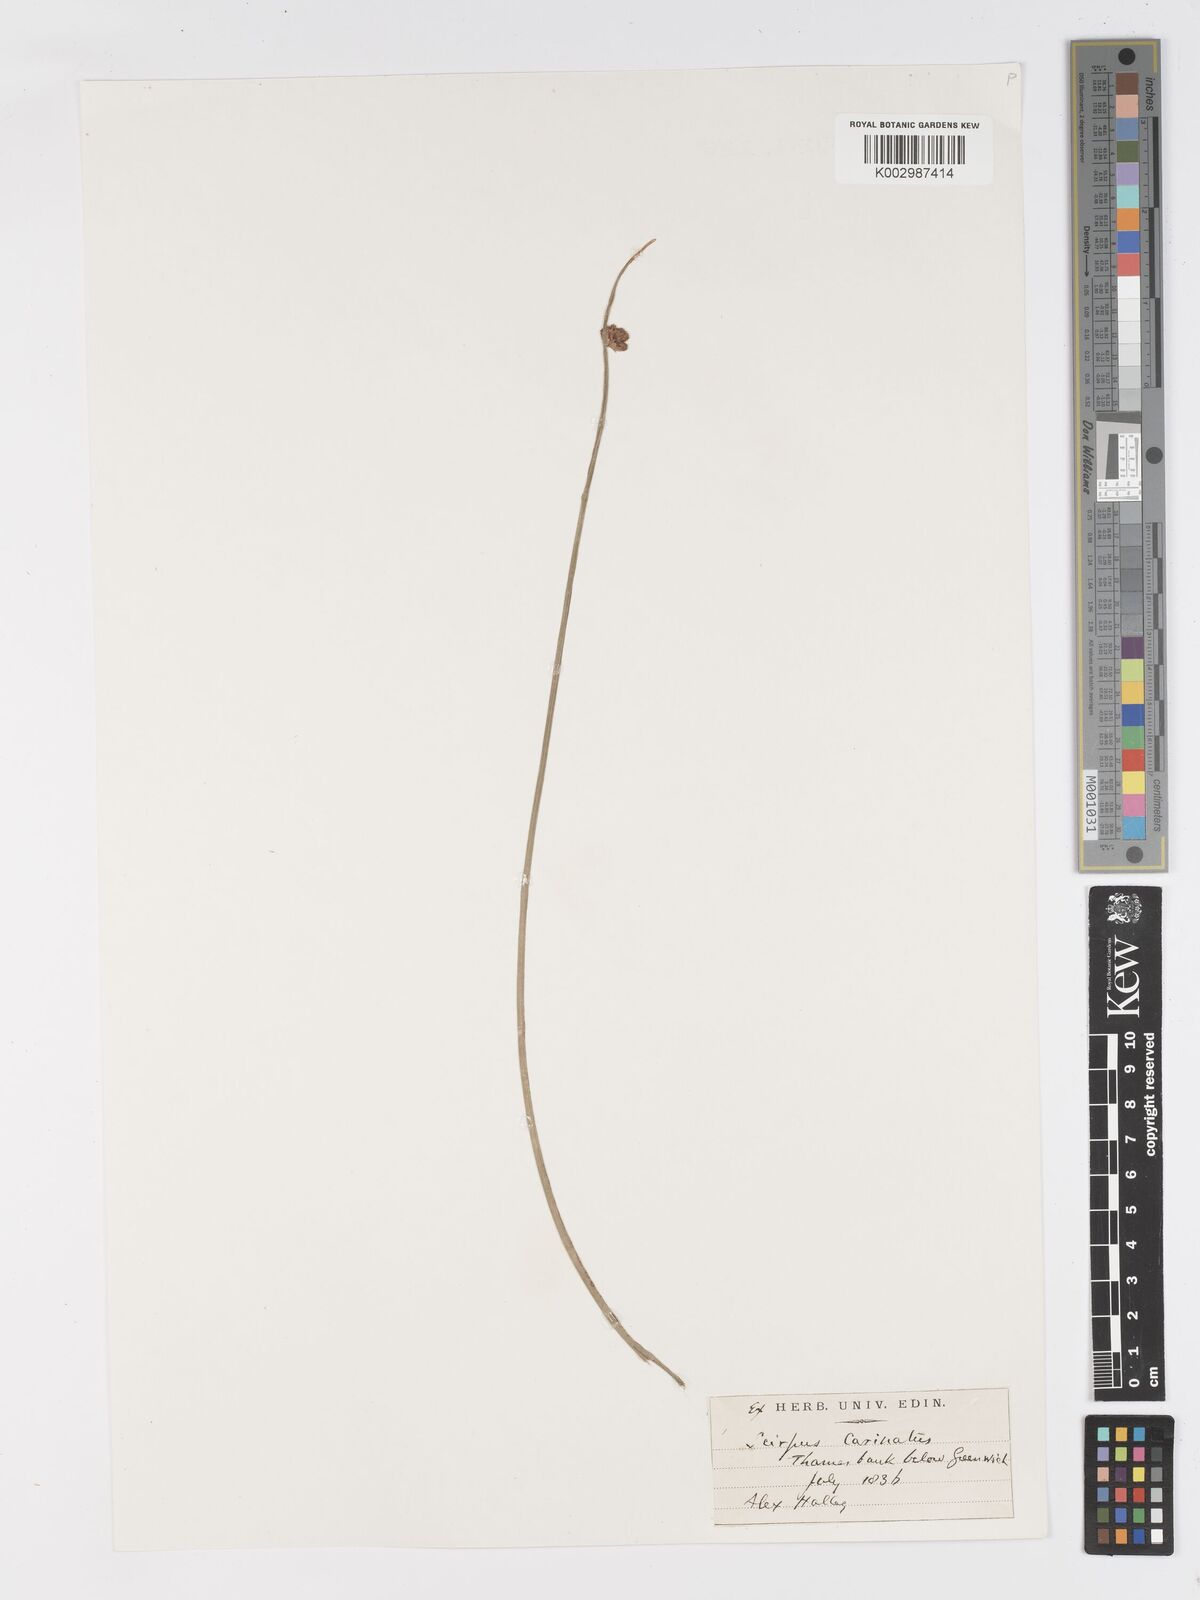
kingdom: Plantae
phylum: Tracheophyta
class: Liliopsida
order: Poales
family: Cyperaceae
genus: Schoenoplectus
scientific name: Schoenoplectus lacustris
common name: Common club-rush
